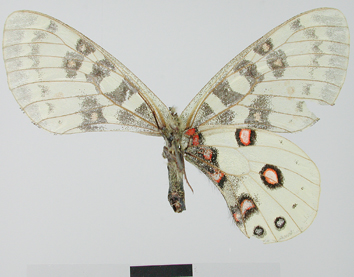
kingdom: Animalia
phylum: Arthropoda
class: Insecta
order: Lepidoptera
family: Papilionidae
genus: Parnassius
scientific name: Parnassius orleans
